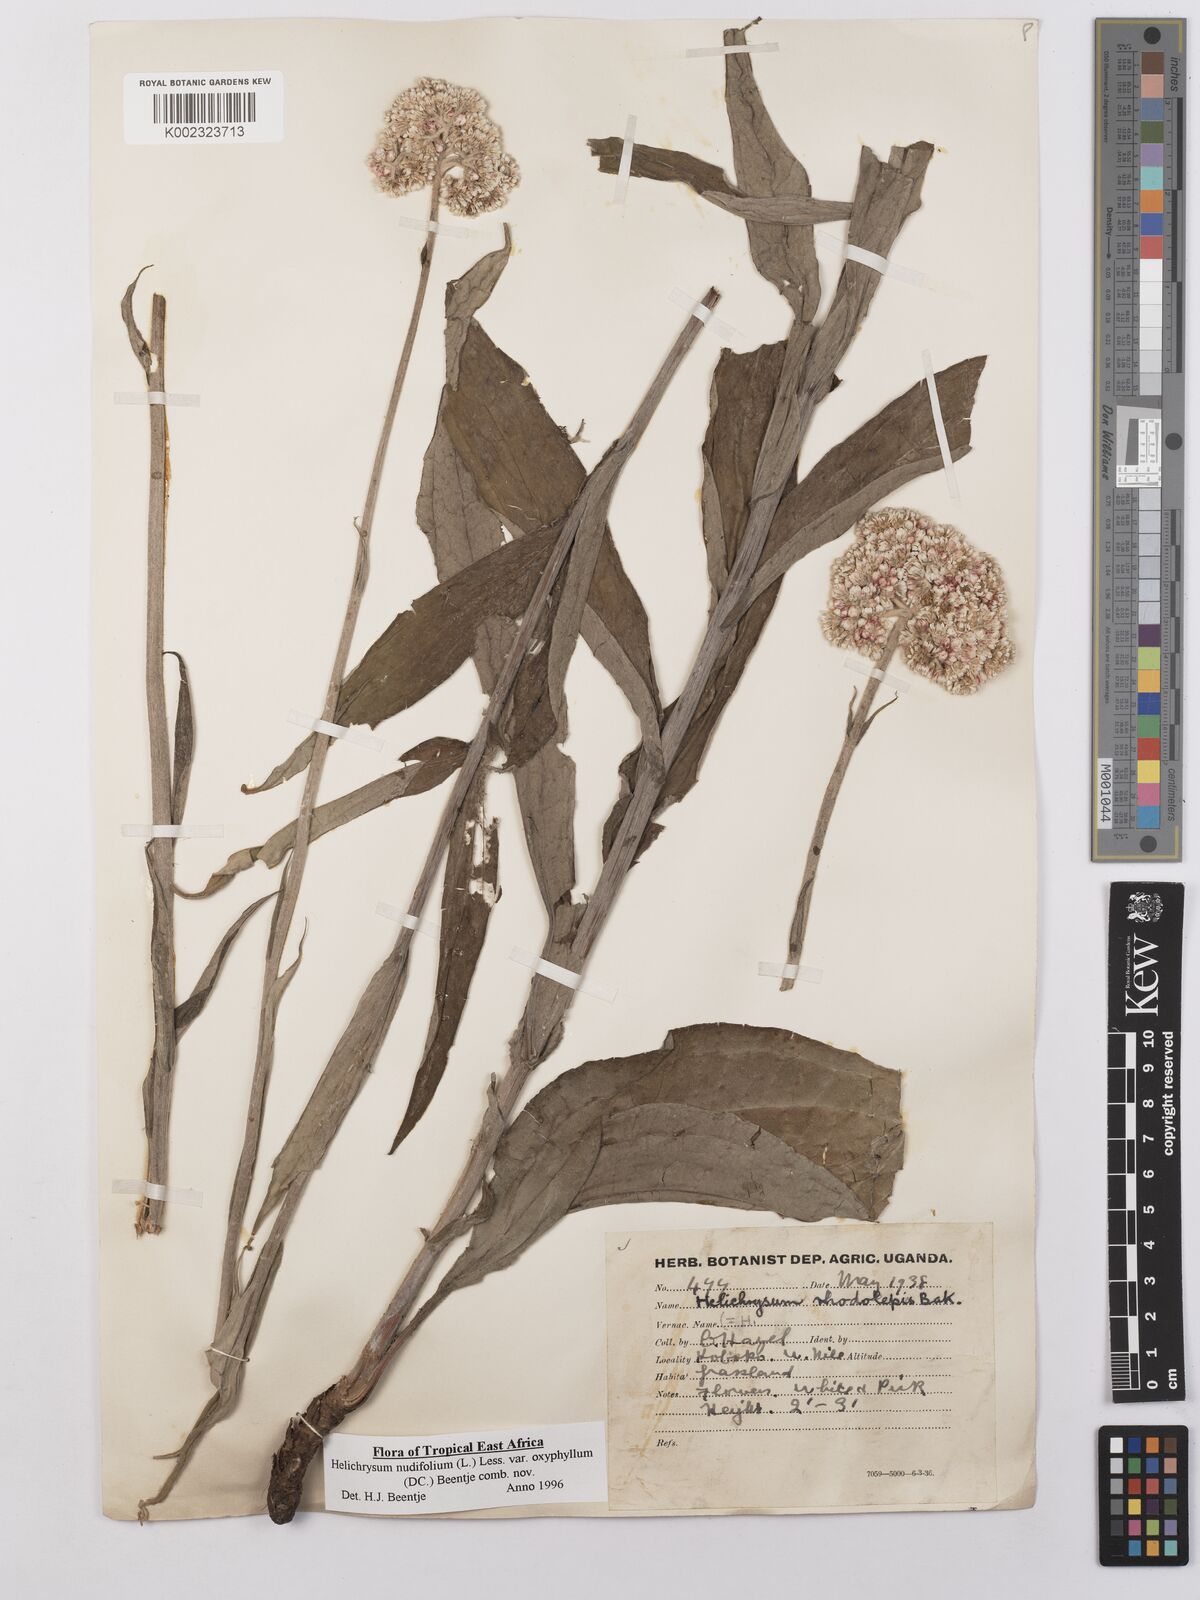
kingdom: Plantae
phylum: Tracheophyta
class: Magnoliopsida
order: Asterales
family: Asteraceae
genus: Helichrysum
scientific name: Helichrysum nudifolium
